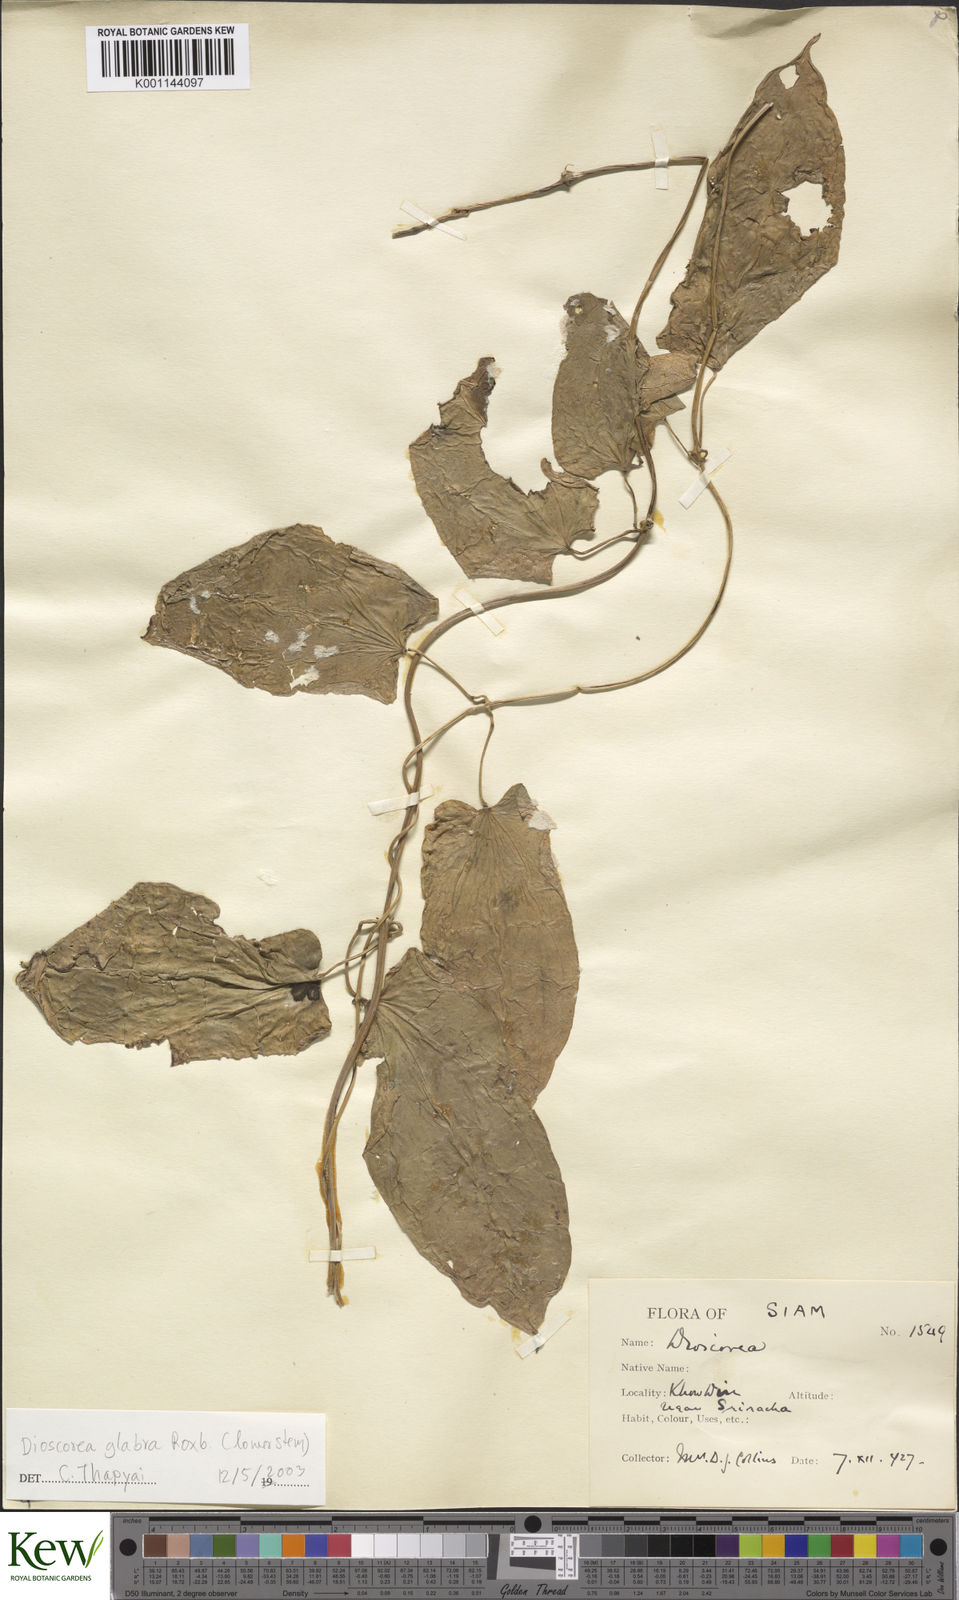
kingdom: Plantae
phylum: Tracheophyta
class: Liliopsida
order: Dioscoreales
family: Dioscoreaceae
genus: Dioscorea
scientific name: Dioscorea glabra
